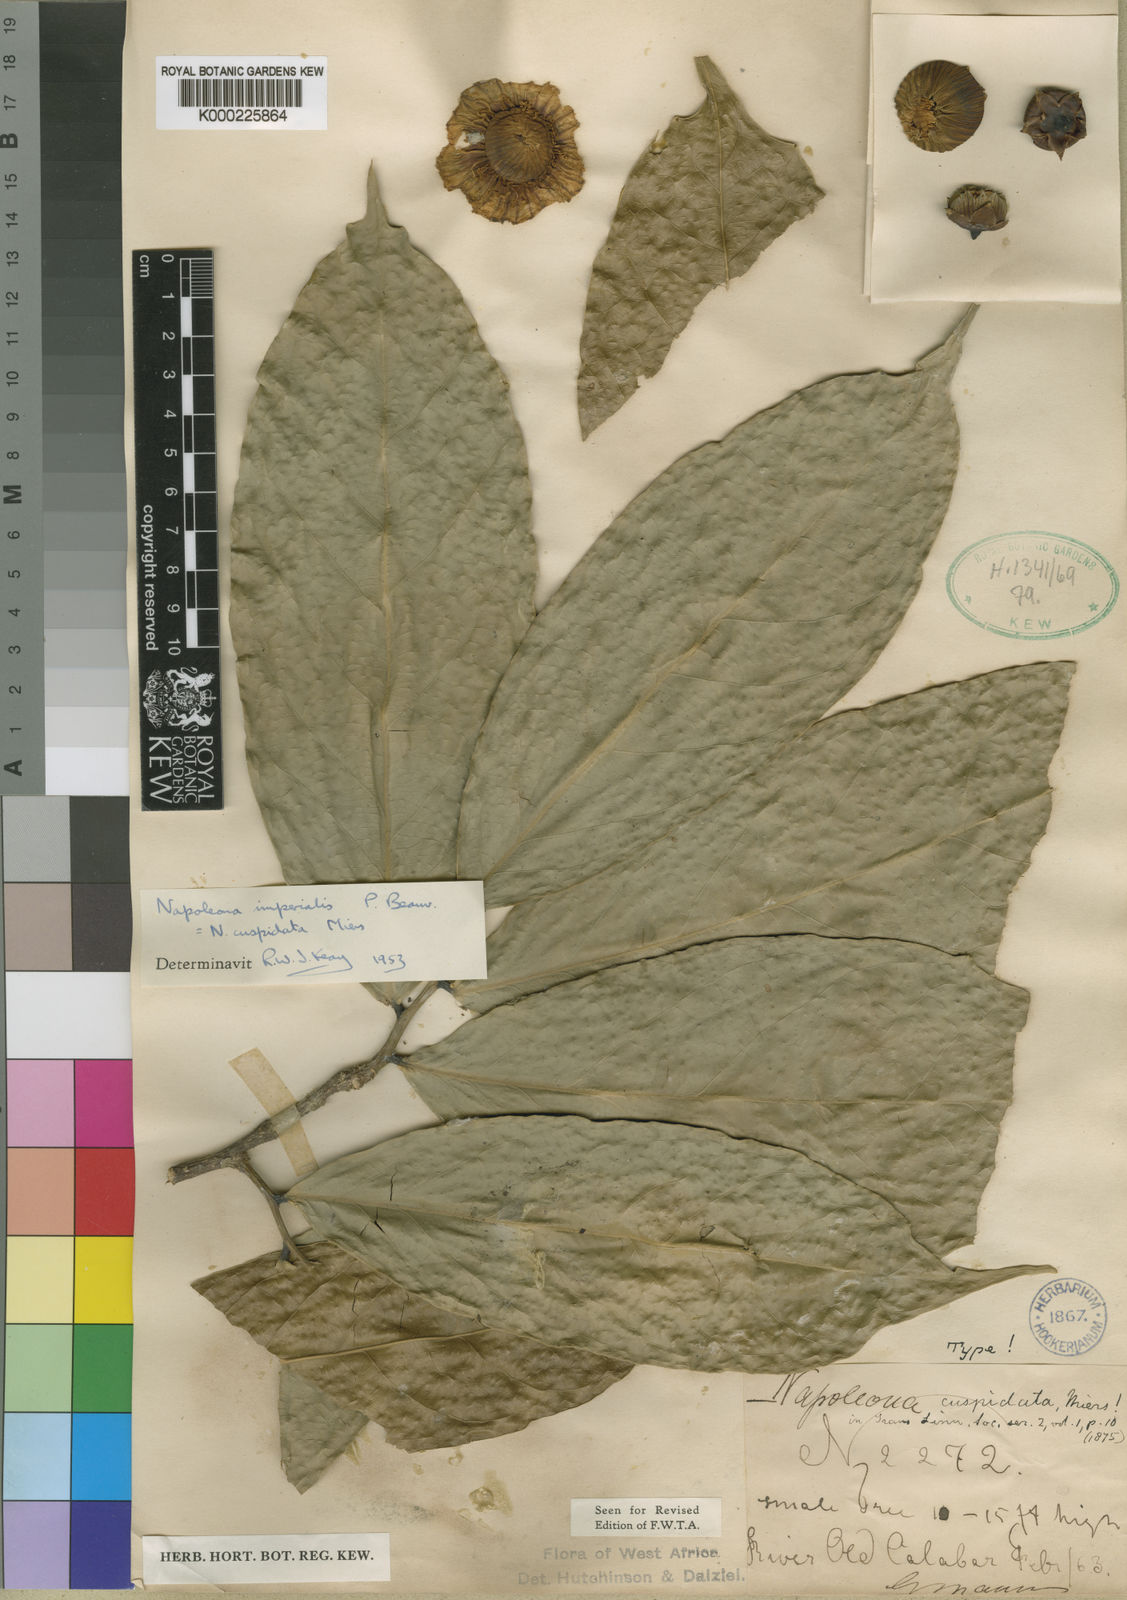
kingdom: Plantae
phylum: Tracheophyta
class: Magnoliopsida
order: Ericales
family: Lecythidaceae
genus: Napoleonaea
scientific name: Napoleonaea imperialis
